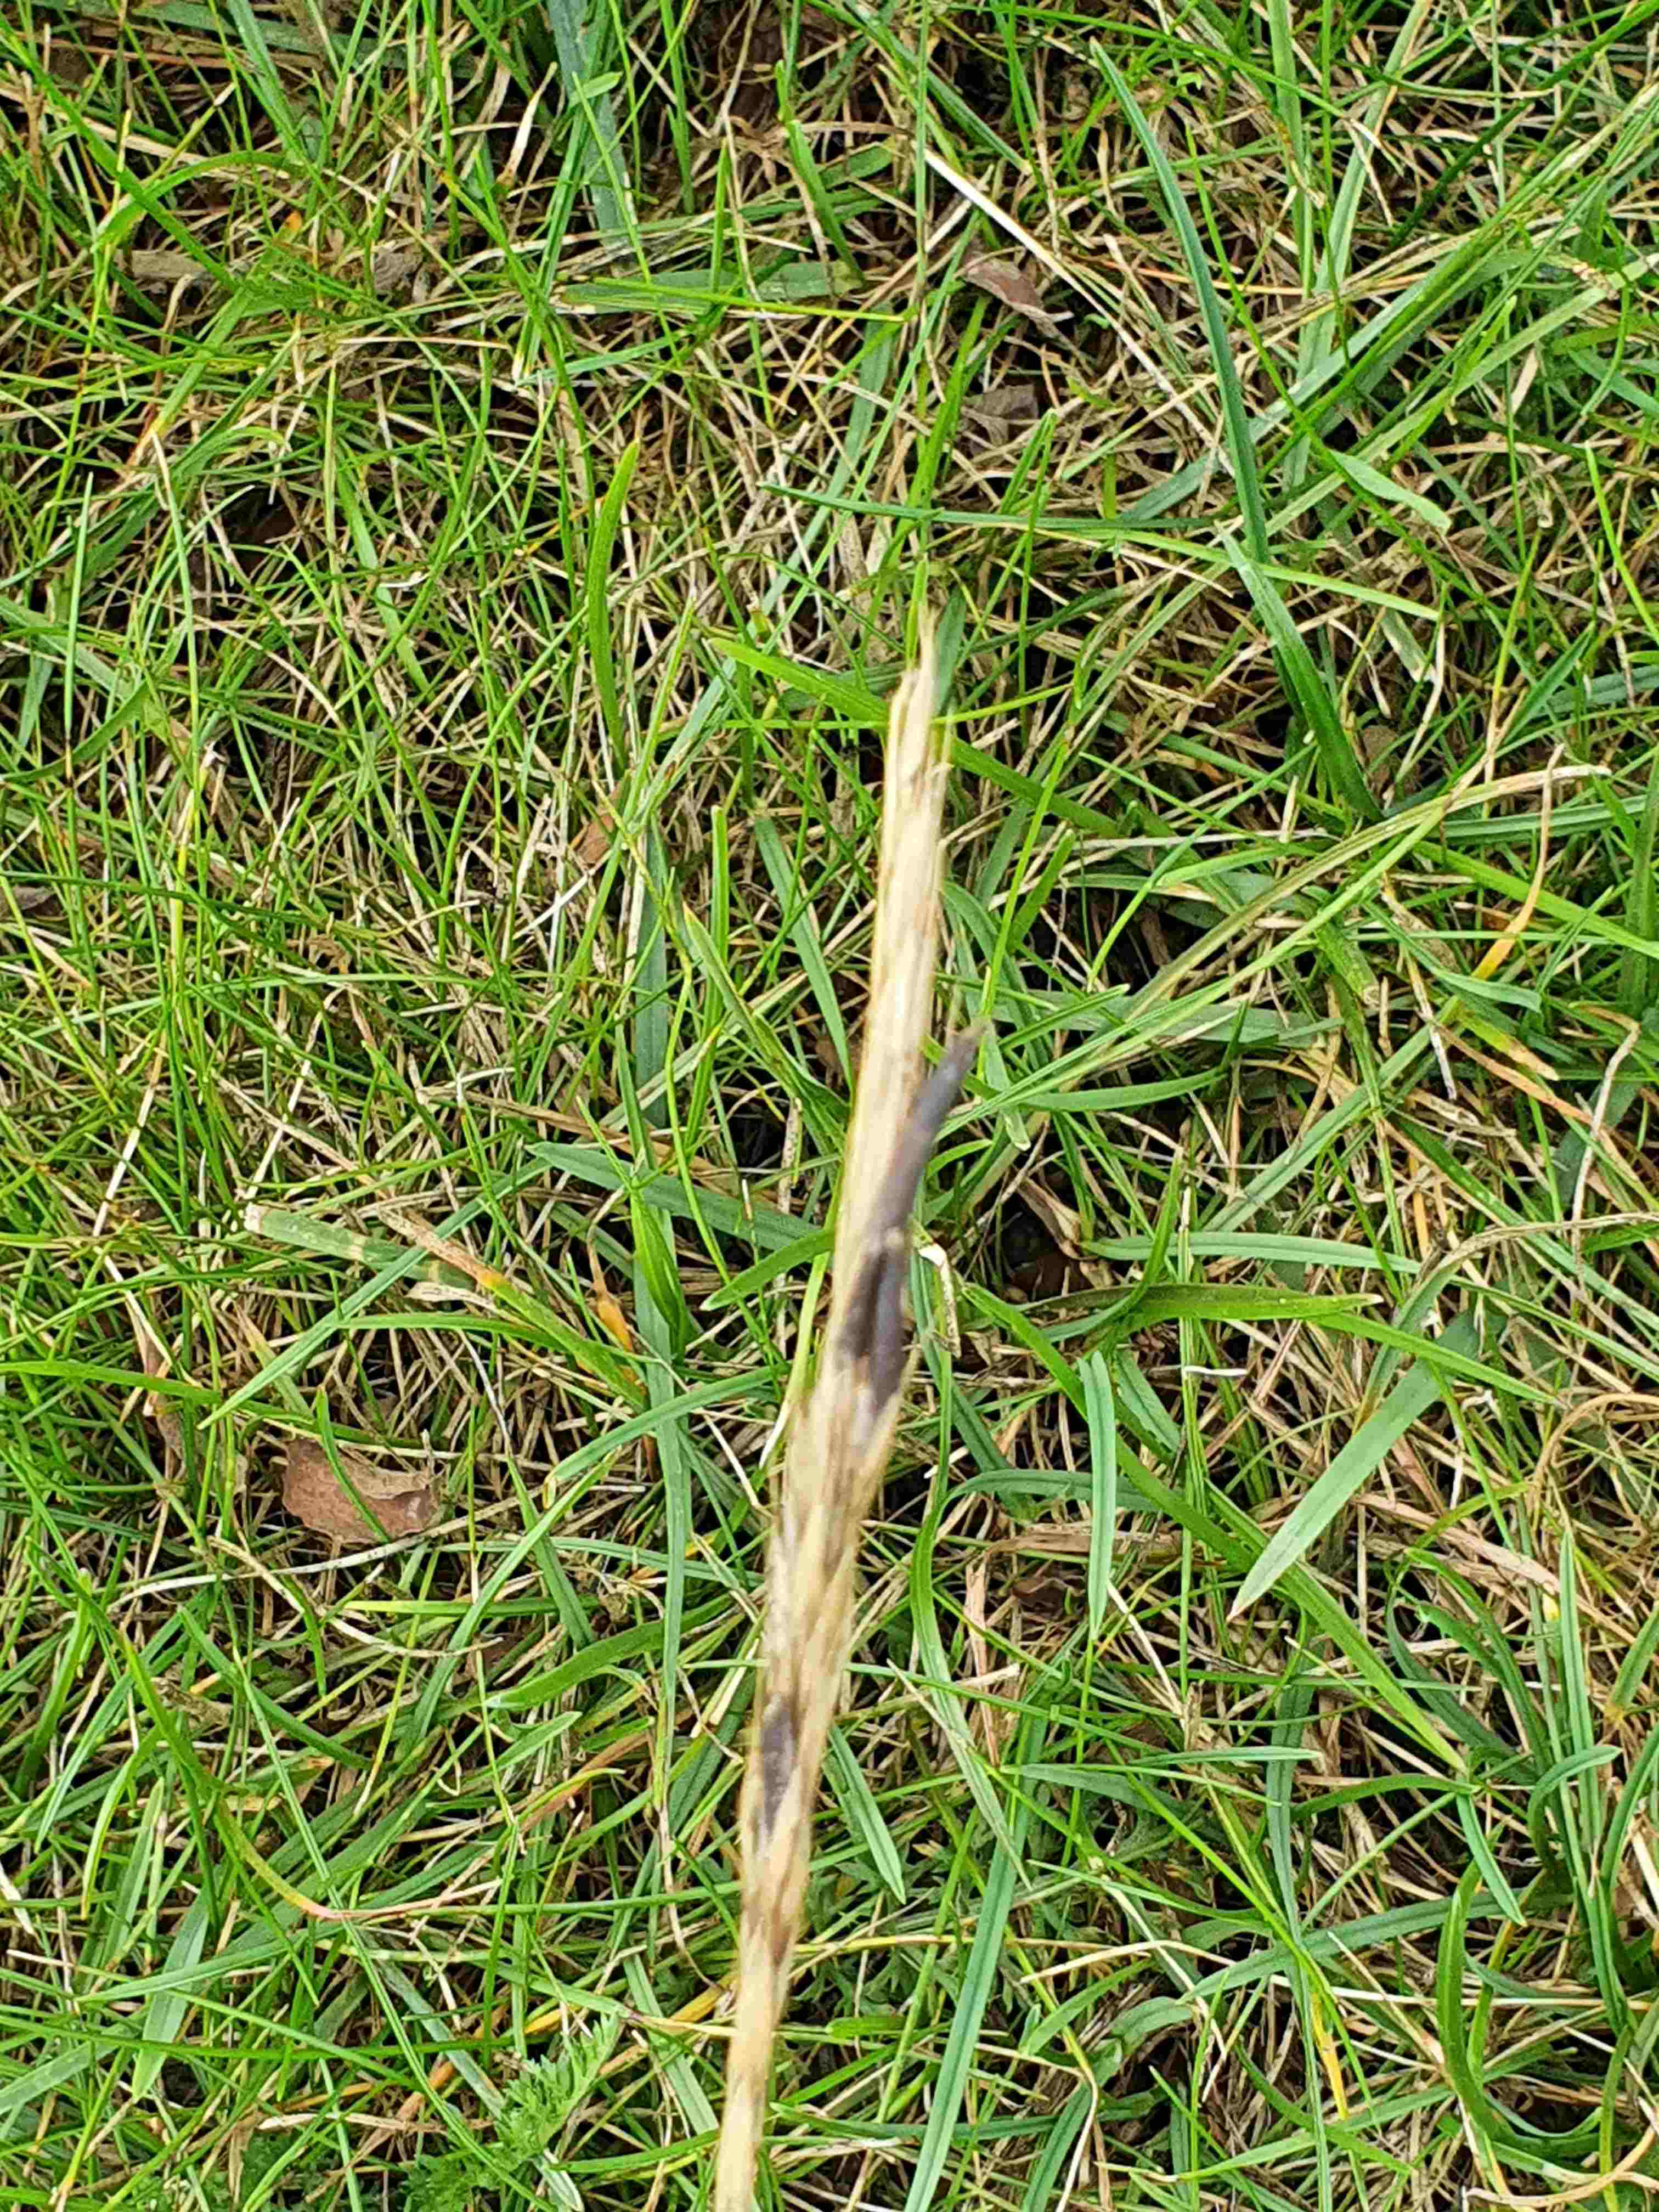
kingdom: Fungi
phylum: Ascomycota
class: Sordariomycetes
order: Hypocreales
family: Clavicipitaceae
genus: Claviceps
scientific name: Claviceps purpurea
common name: almindelig meldrøjer
